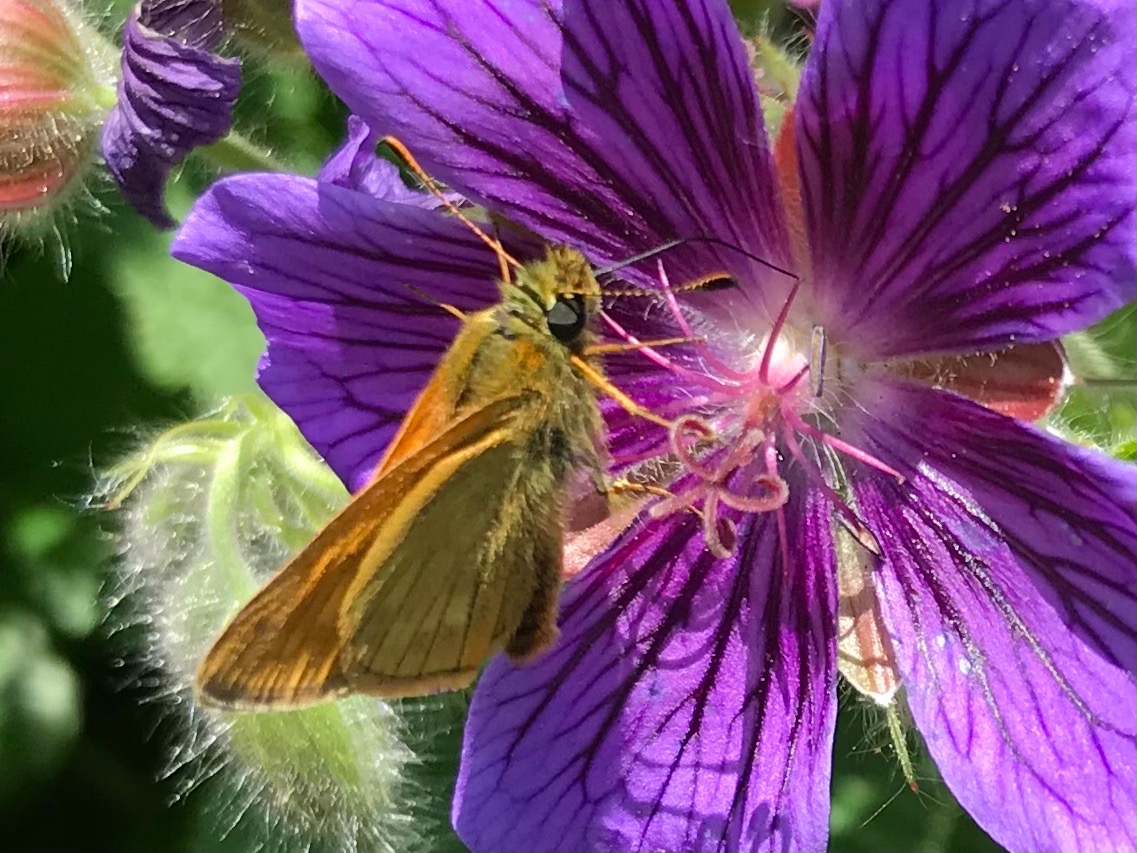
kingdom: Animalia
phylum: Arthropoda
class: Insecta
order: Lepidoptera
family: Hesperiidae
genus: Ochlodes
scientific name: Ochlodes venata
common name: Stor bredpande
